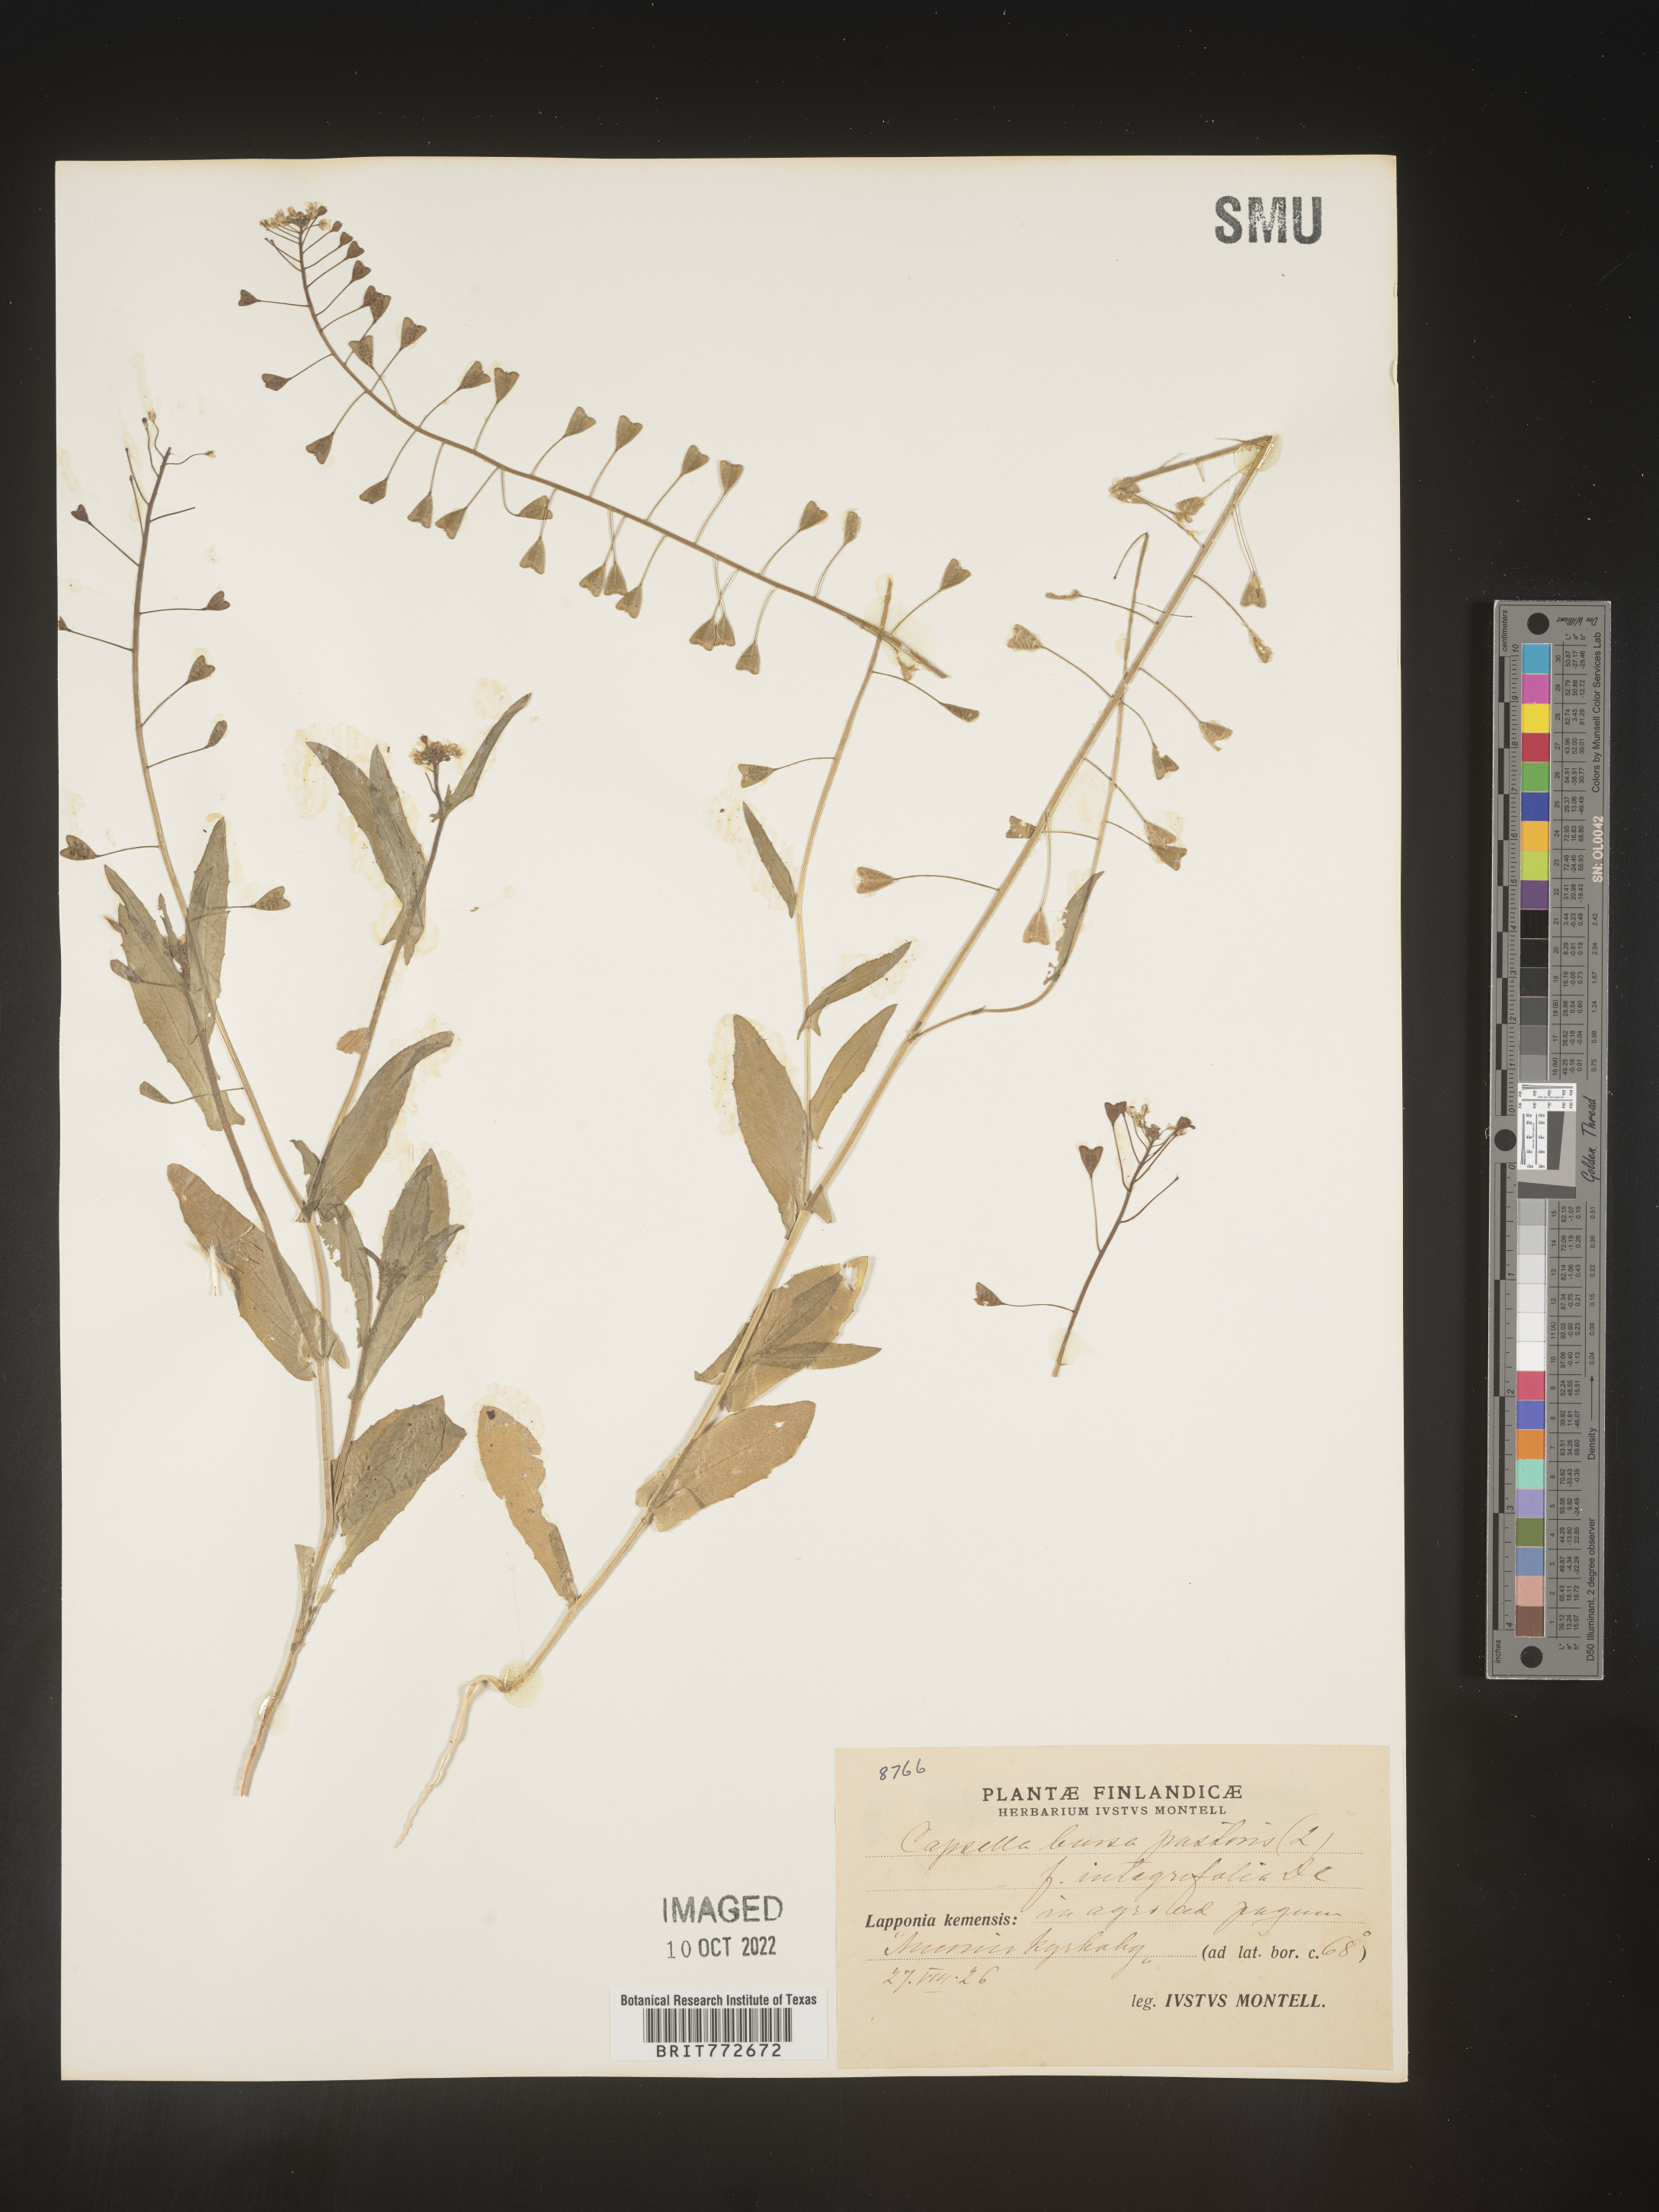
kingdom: Plantae
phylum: Tracheophyta
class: Magnoliopsida
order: Brassicales
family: Brassicaceae
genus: Capsella
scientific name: Capsella
